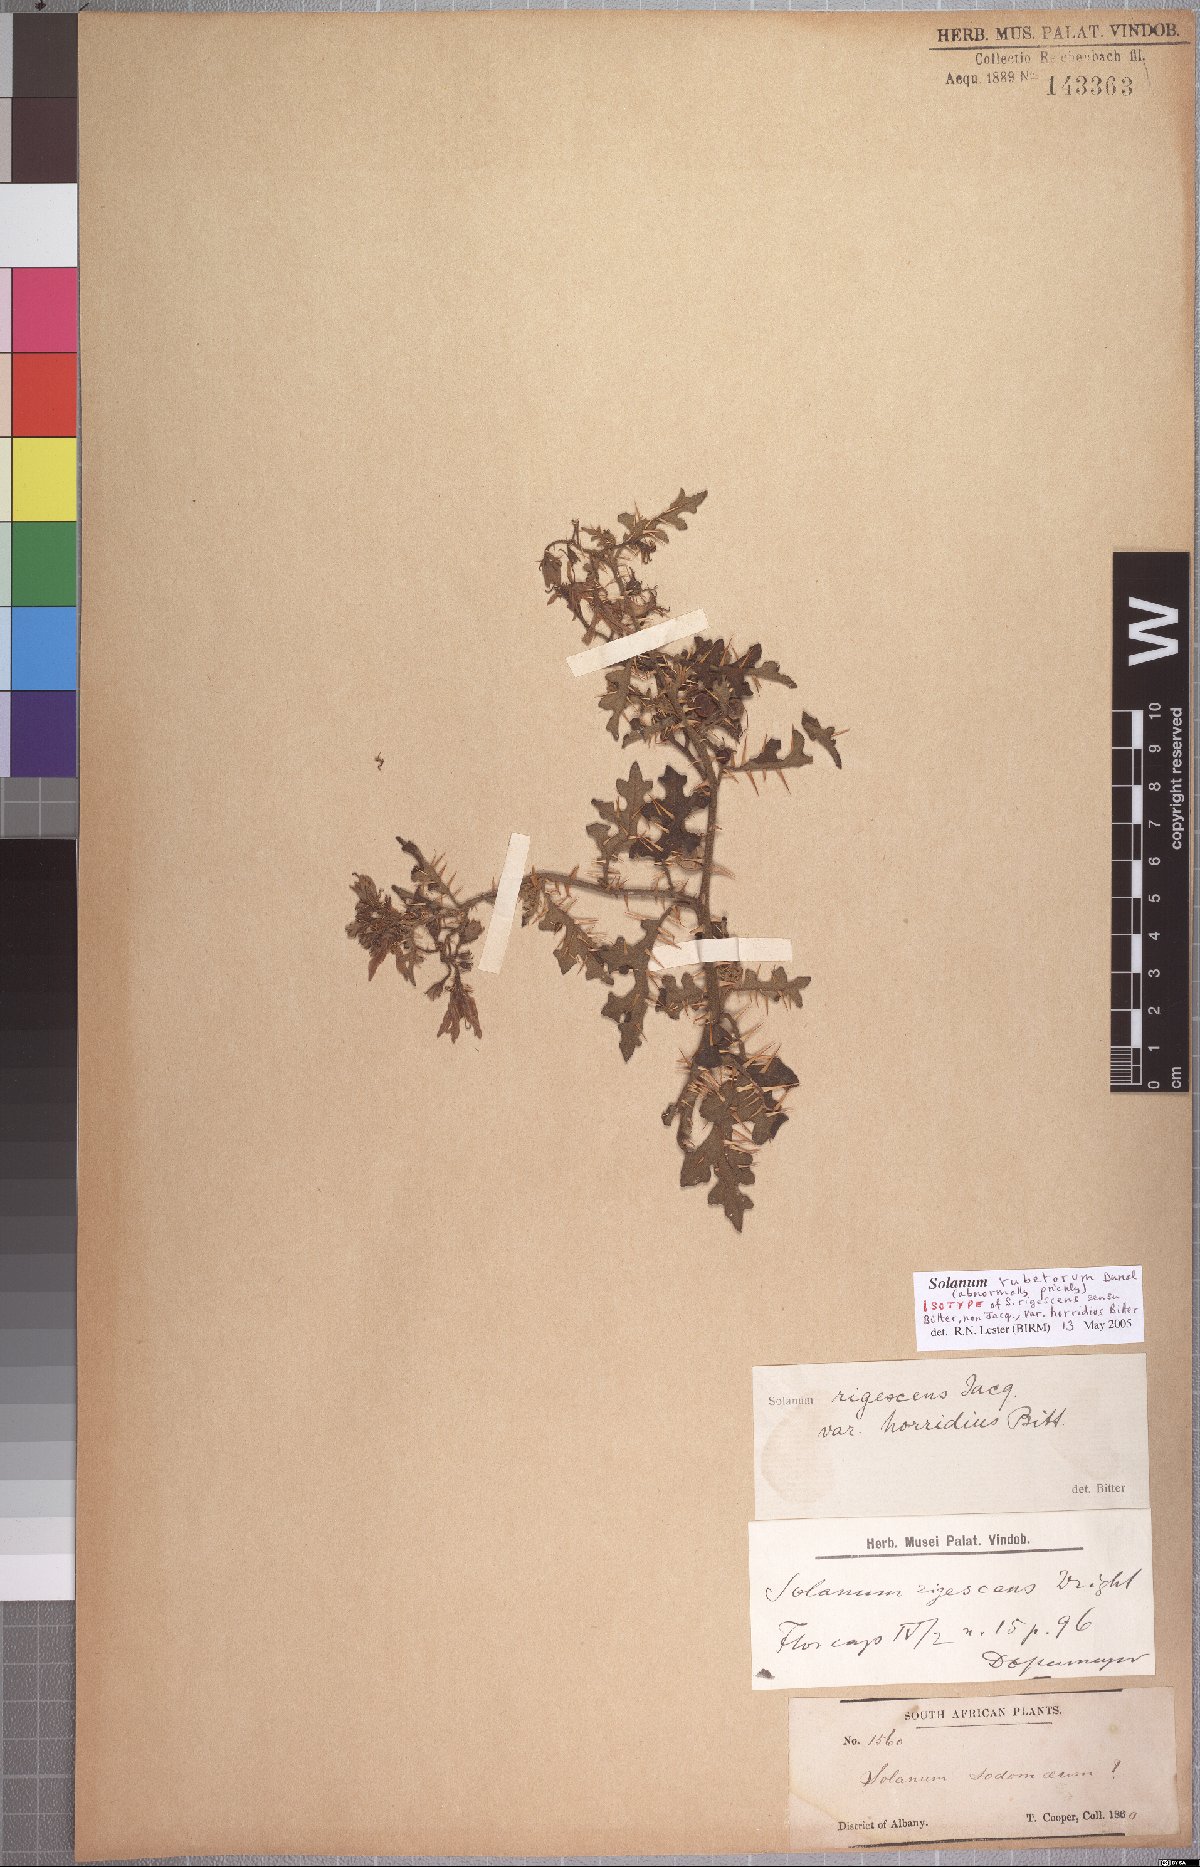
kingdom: Plantae
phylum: Tracheophyta
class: Magnoliopsida
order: Solanales
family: Solanaceae
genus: Solanum
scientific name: Solanum rubetorum
